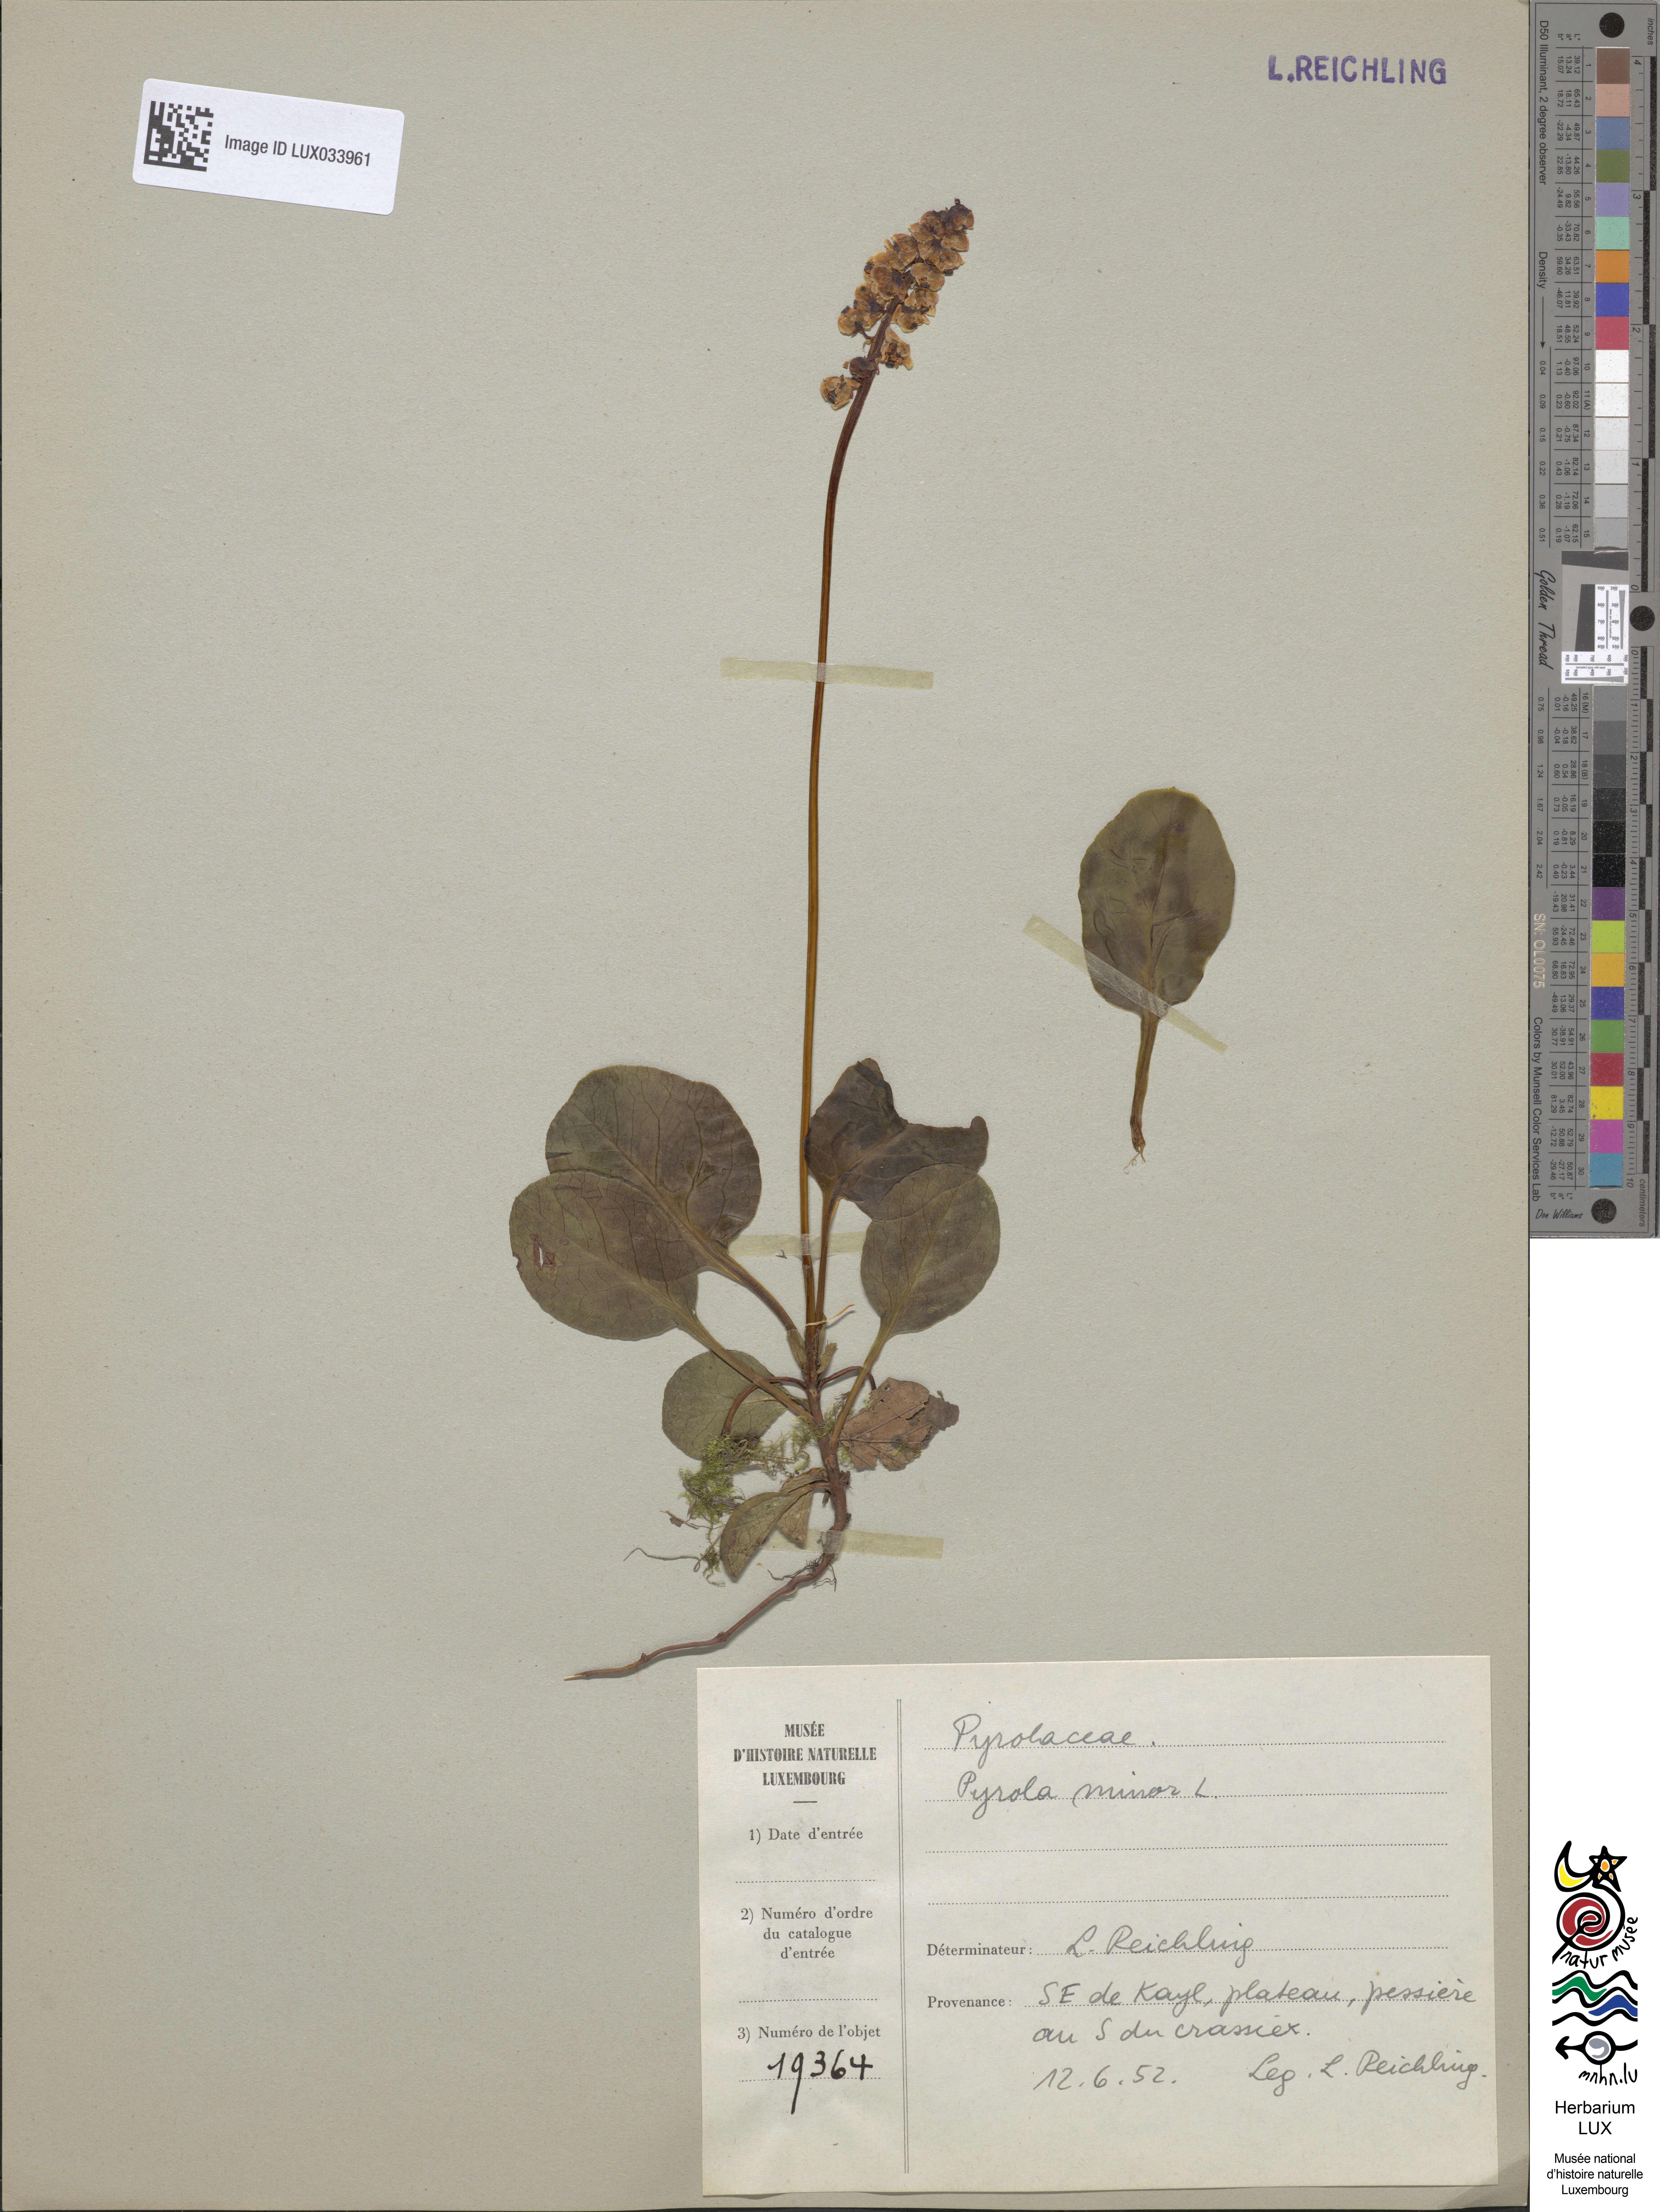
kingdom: Plantae
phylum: Tracheophyta
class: Magnoliopsida
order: Ericales
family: Ericaceae
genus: Pyrola
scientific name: Pyrola minor
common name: Common wintergreen
